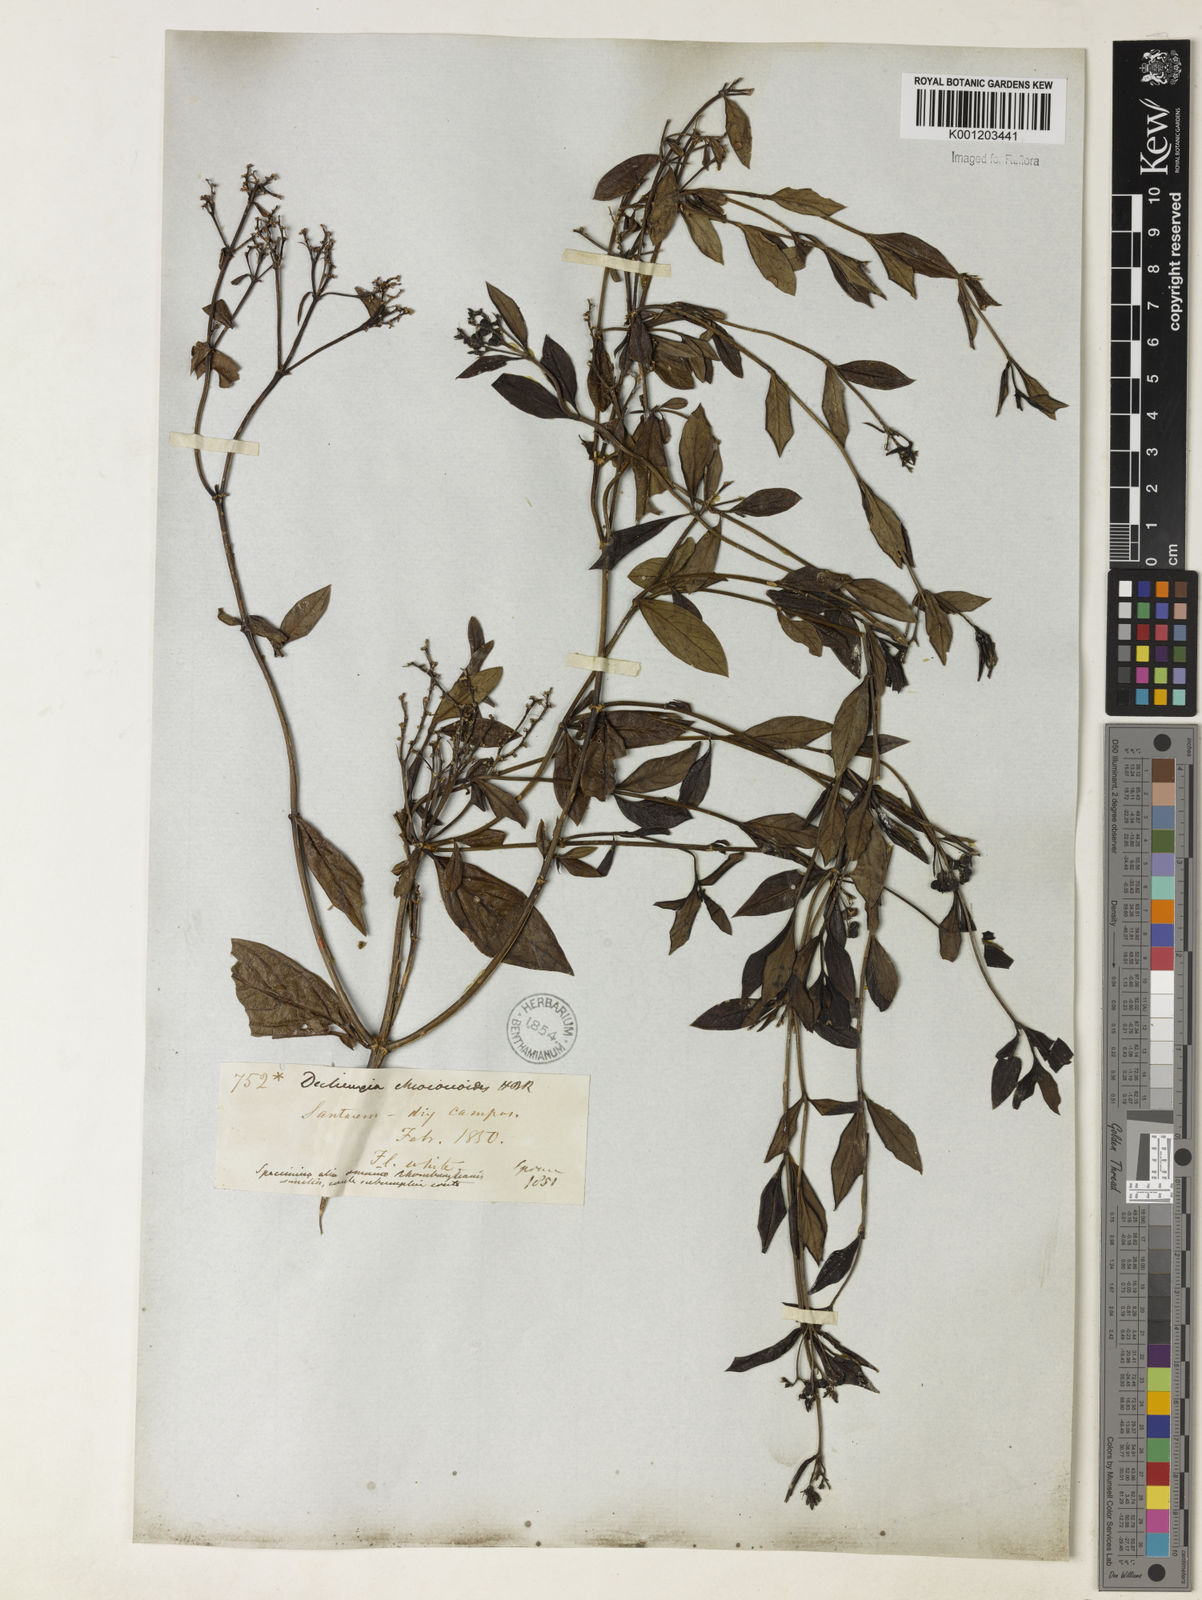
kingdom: Plantae
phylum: Tracheophyta
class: Magnoliopsida
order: Gentianales
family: Rubiaceae
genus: Declieuxia
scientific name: Declieuxia fruticosa
